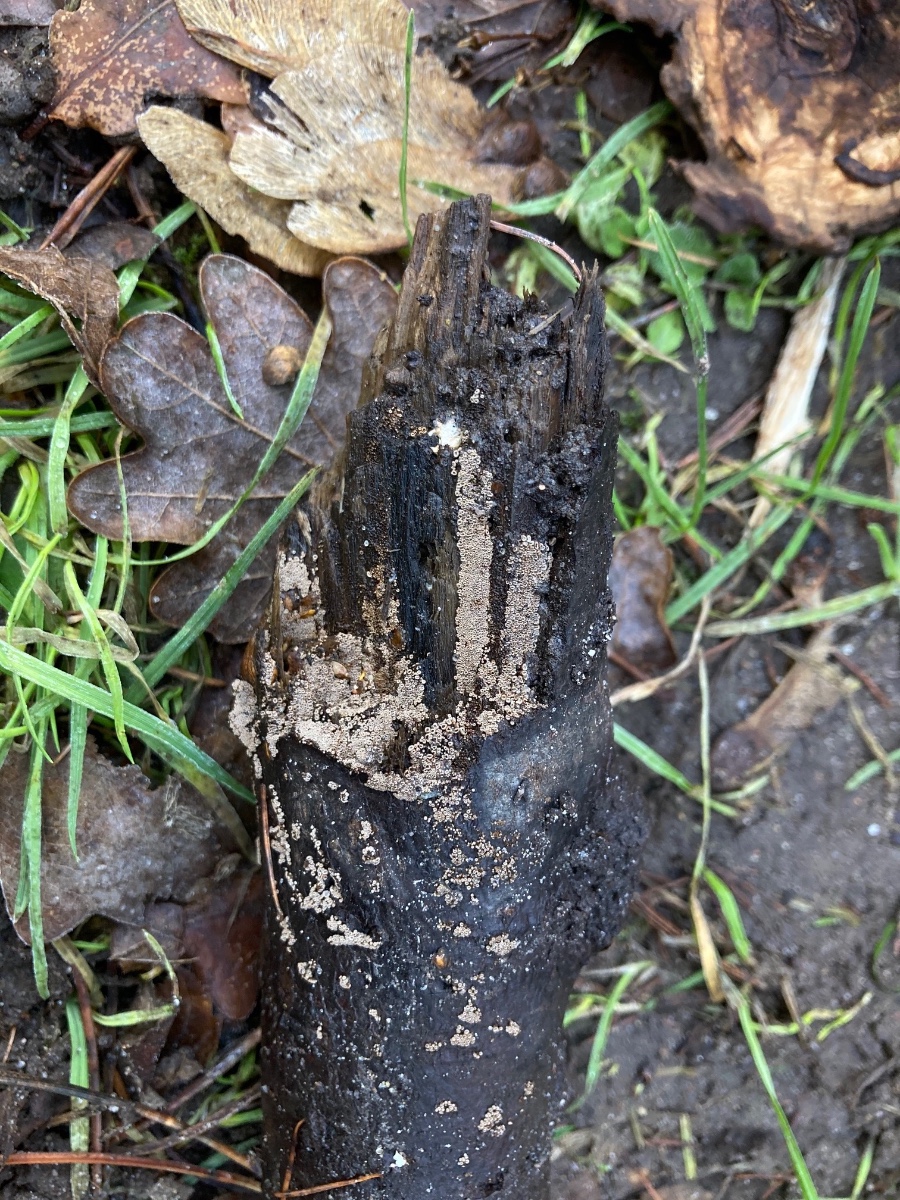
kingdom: Fungi
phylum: Basidiomycota
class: Agaricomycetes
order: Agaricales
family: Niaceae
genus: Merismodes
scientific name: Merismodes anomala
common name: almindelig læderskål
